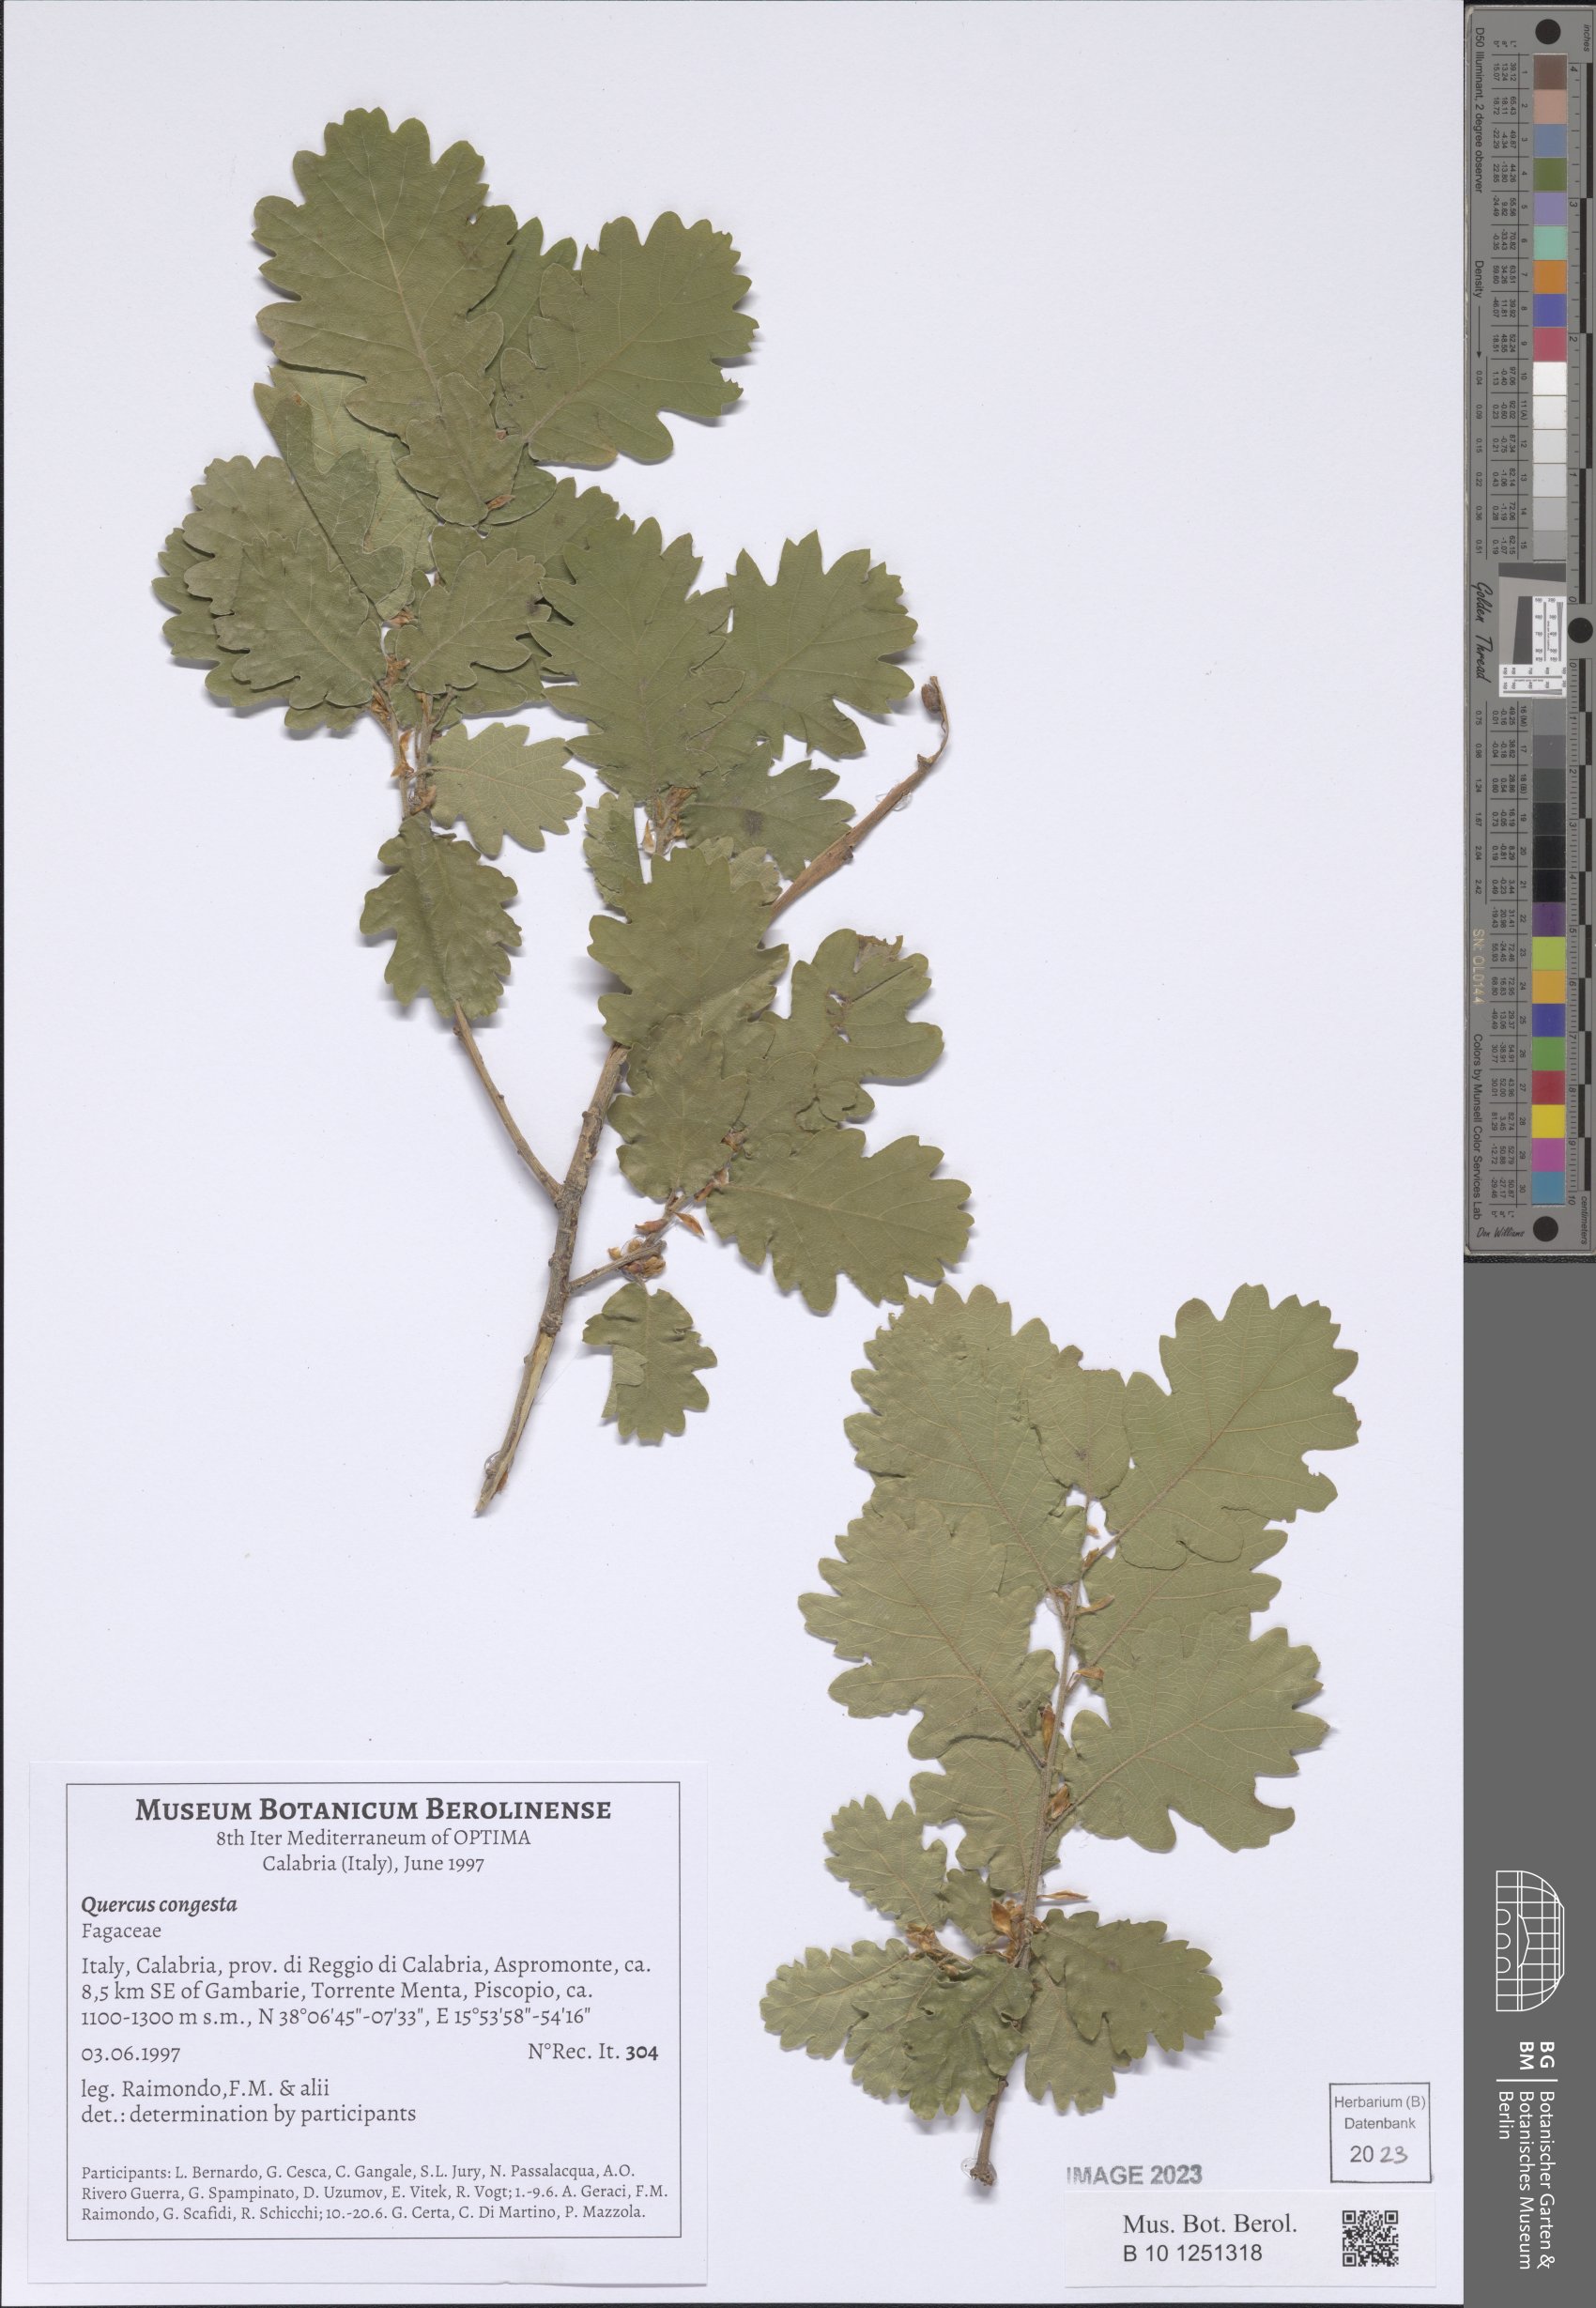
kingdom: Plantae
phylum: Tracheophyta
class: Magnoliopsida
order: Fagales
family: Fagaceae
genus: Quercus
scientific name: Quercus congesta
